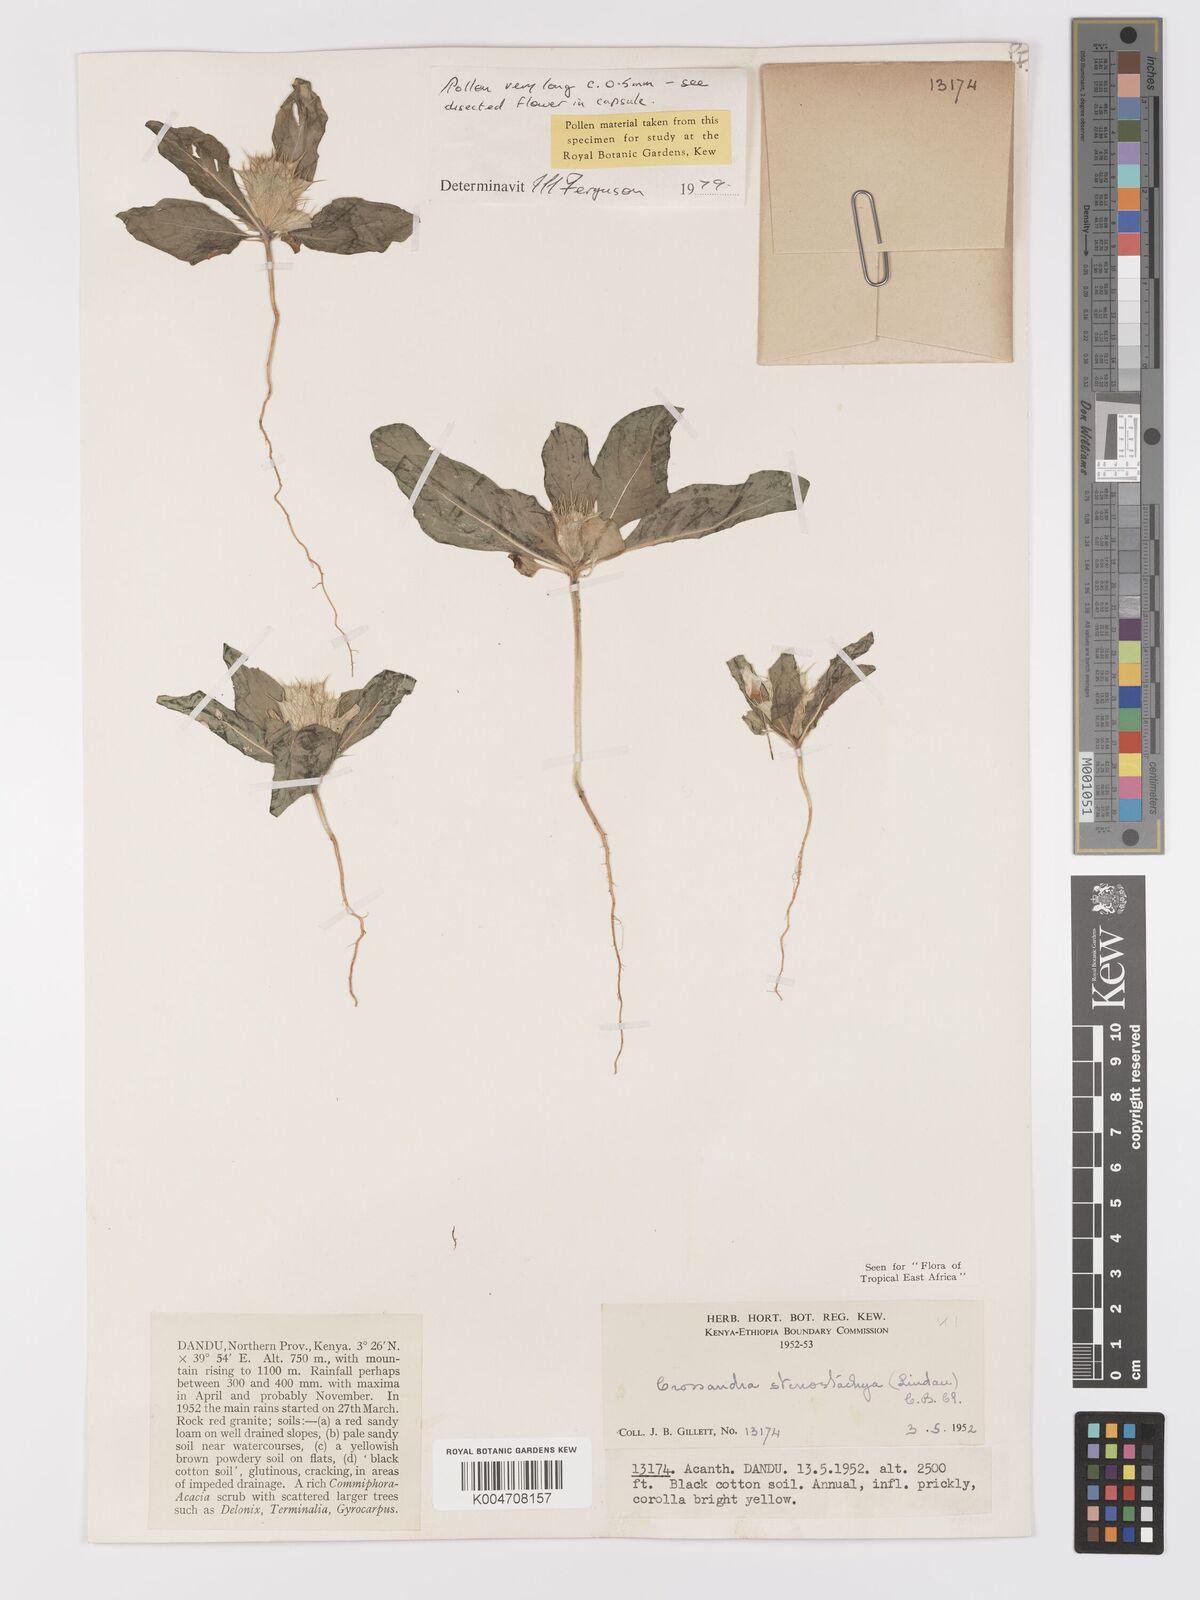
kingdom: Plantae
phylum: Tracheophyta
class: Magnoliopsida
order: Lamiales
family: Acanthaceae
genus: Crossandra
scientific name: Crossandra stenostachya
